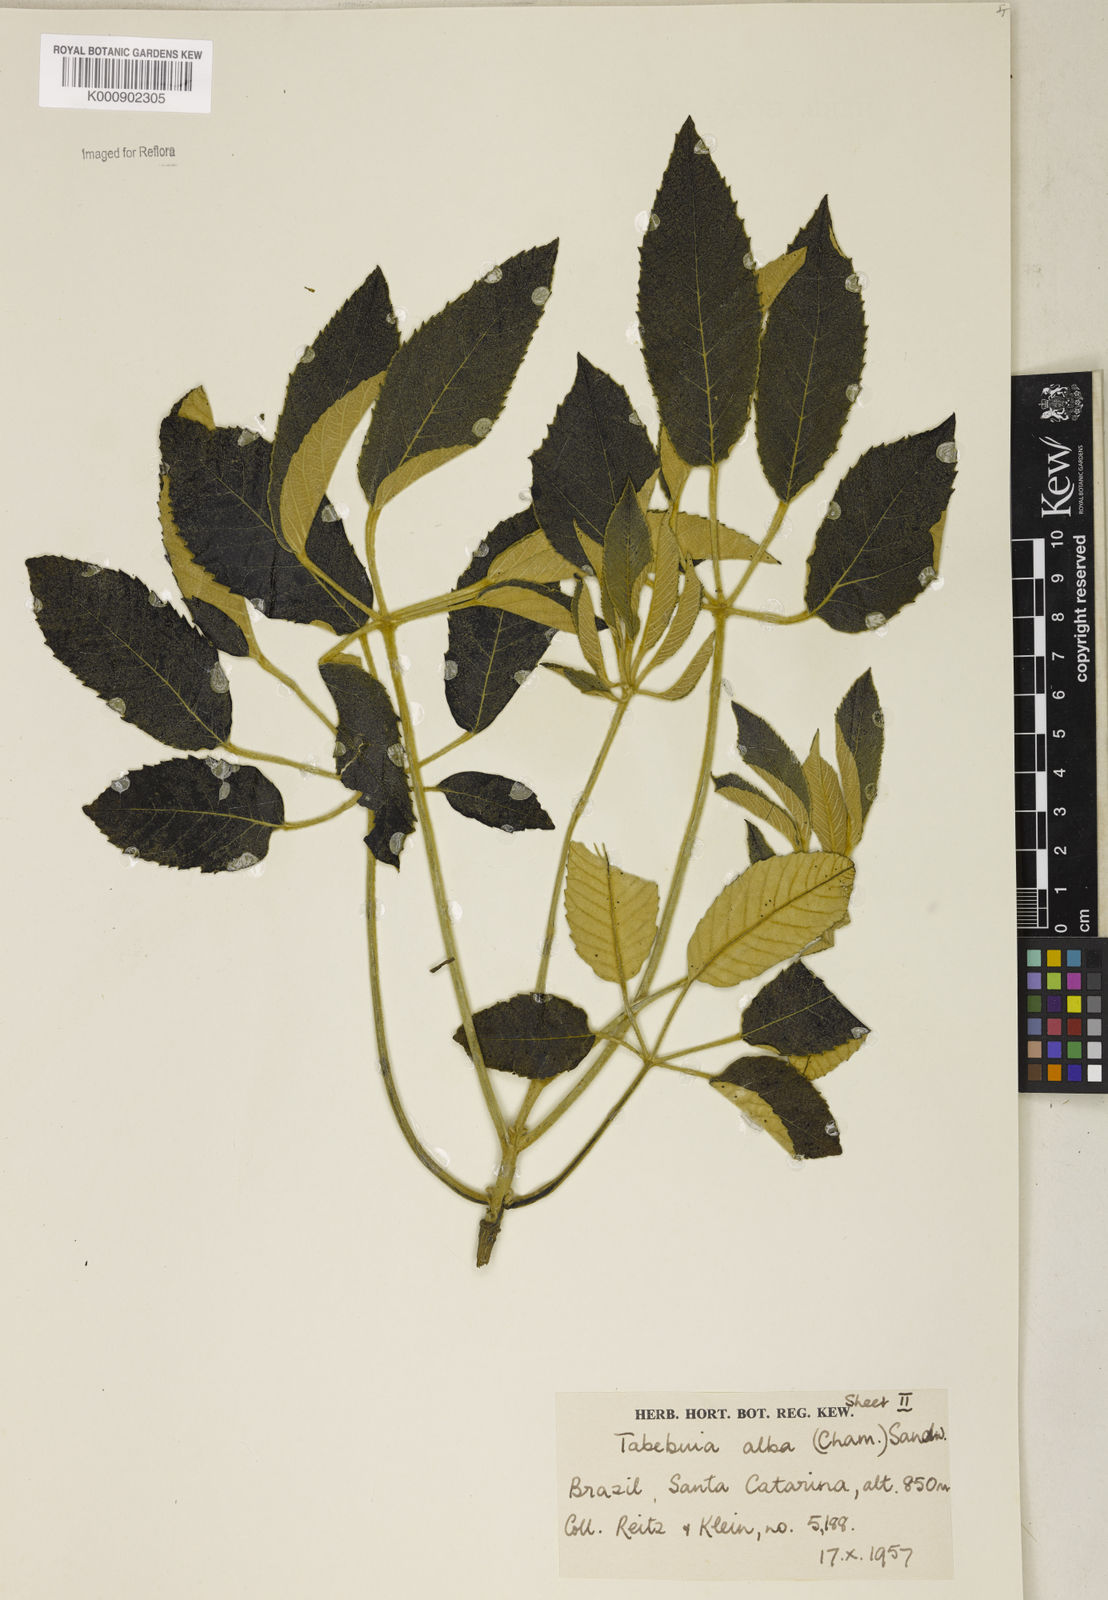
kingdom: Plantae
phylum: Tracheophyta
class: Magnoliopsida
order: Lamiales
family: Bignoniaceae
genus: Handroanthus
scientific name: Handroanthus albus
